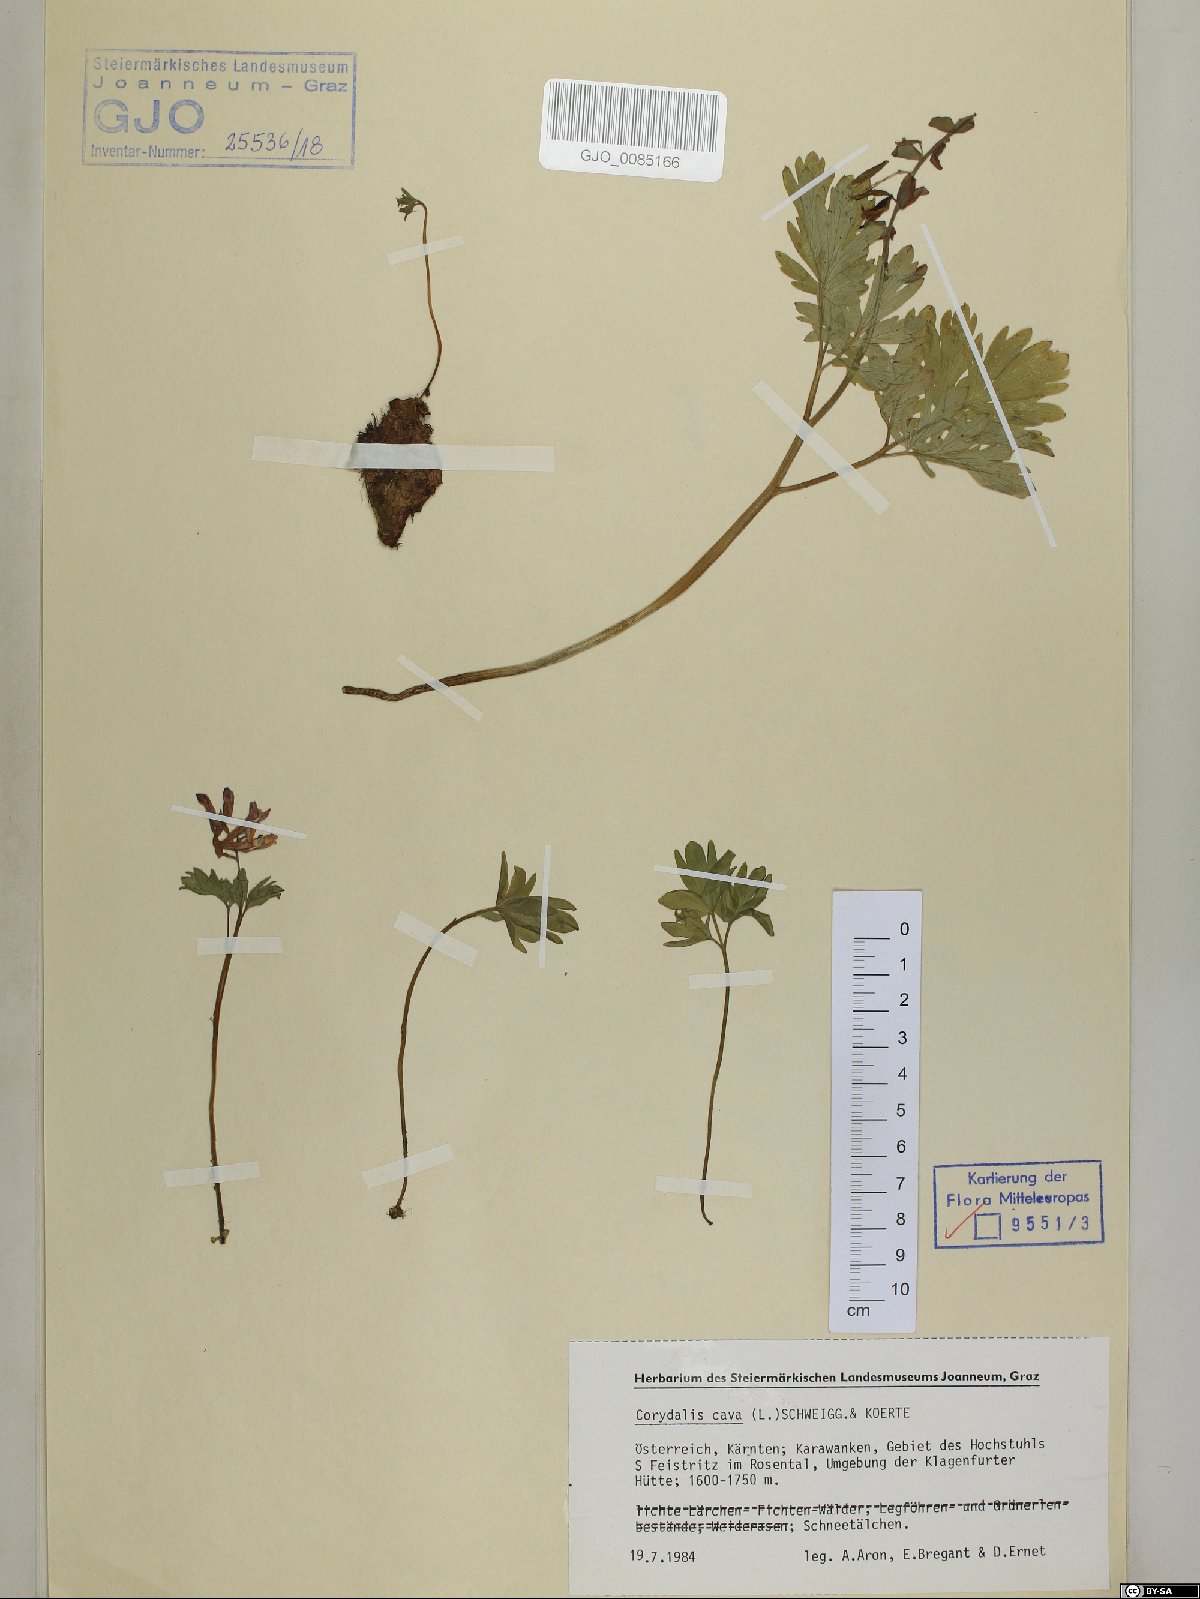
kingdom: Plantae
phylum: Tracheophyta
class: Magnoliopsida
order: Ranunculales
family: Papaveraceae
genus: Corydalis
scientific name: Corydalis cava
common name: Hollowroot
